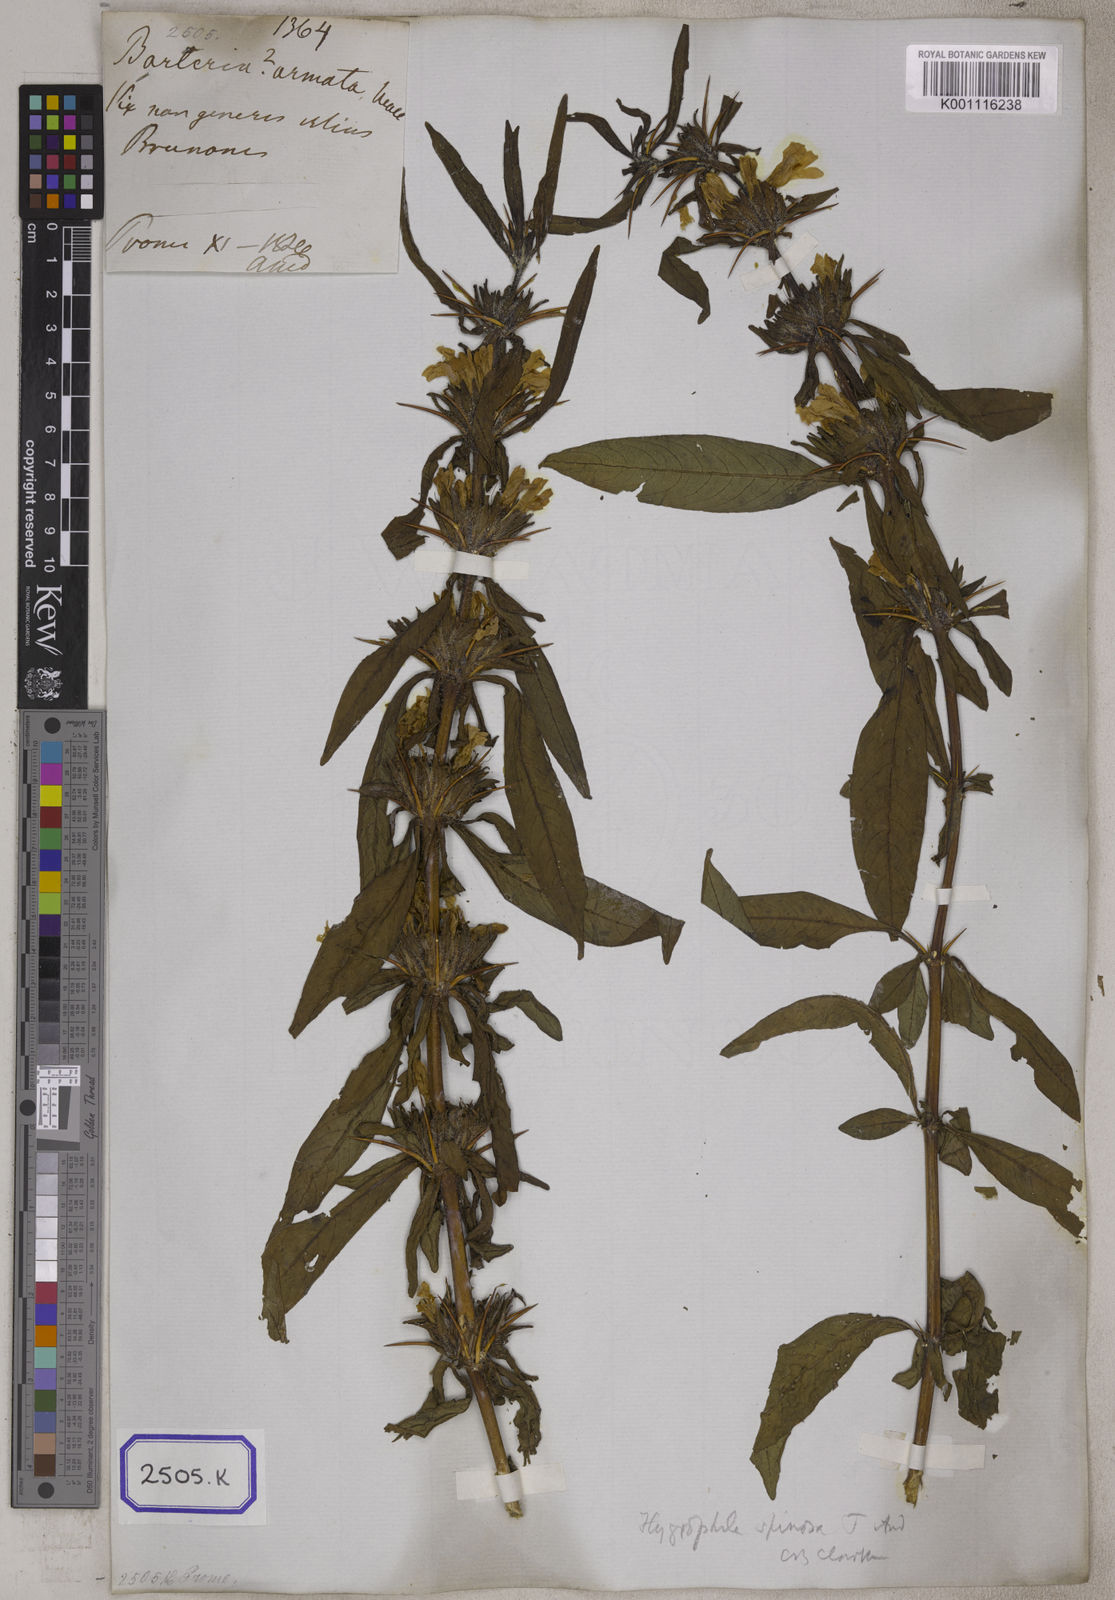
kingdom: Plantae
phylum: Tracheophyta
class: Magnoliopsida
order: Lamiales
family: Acanthaceae
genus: Barleria
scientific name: Barleria longiflora
